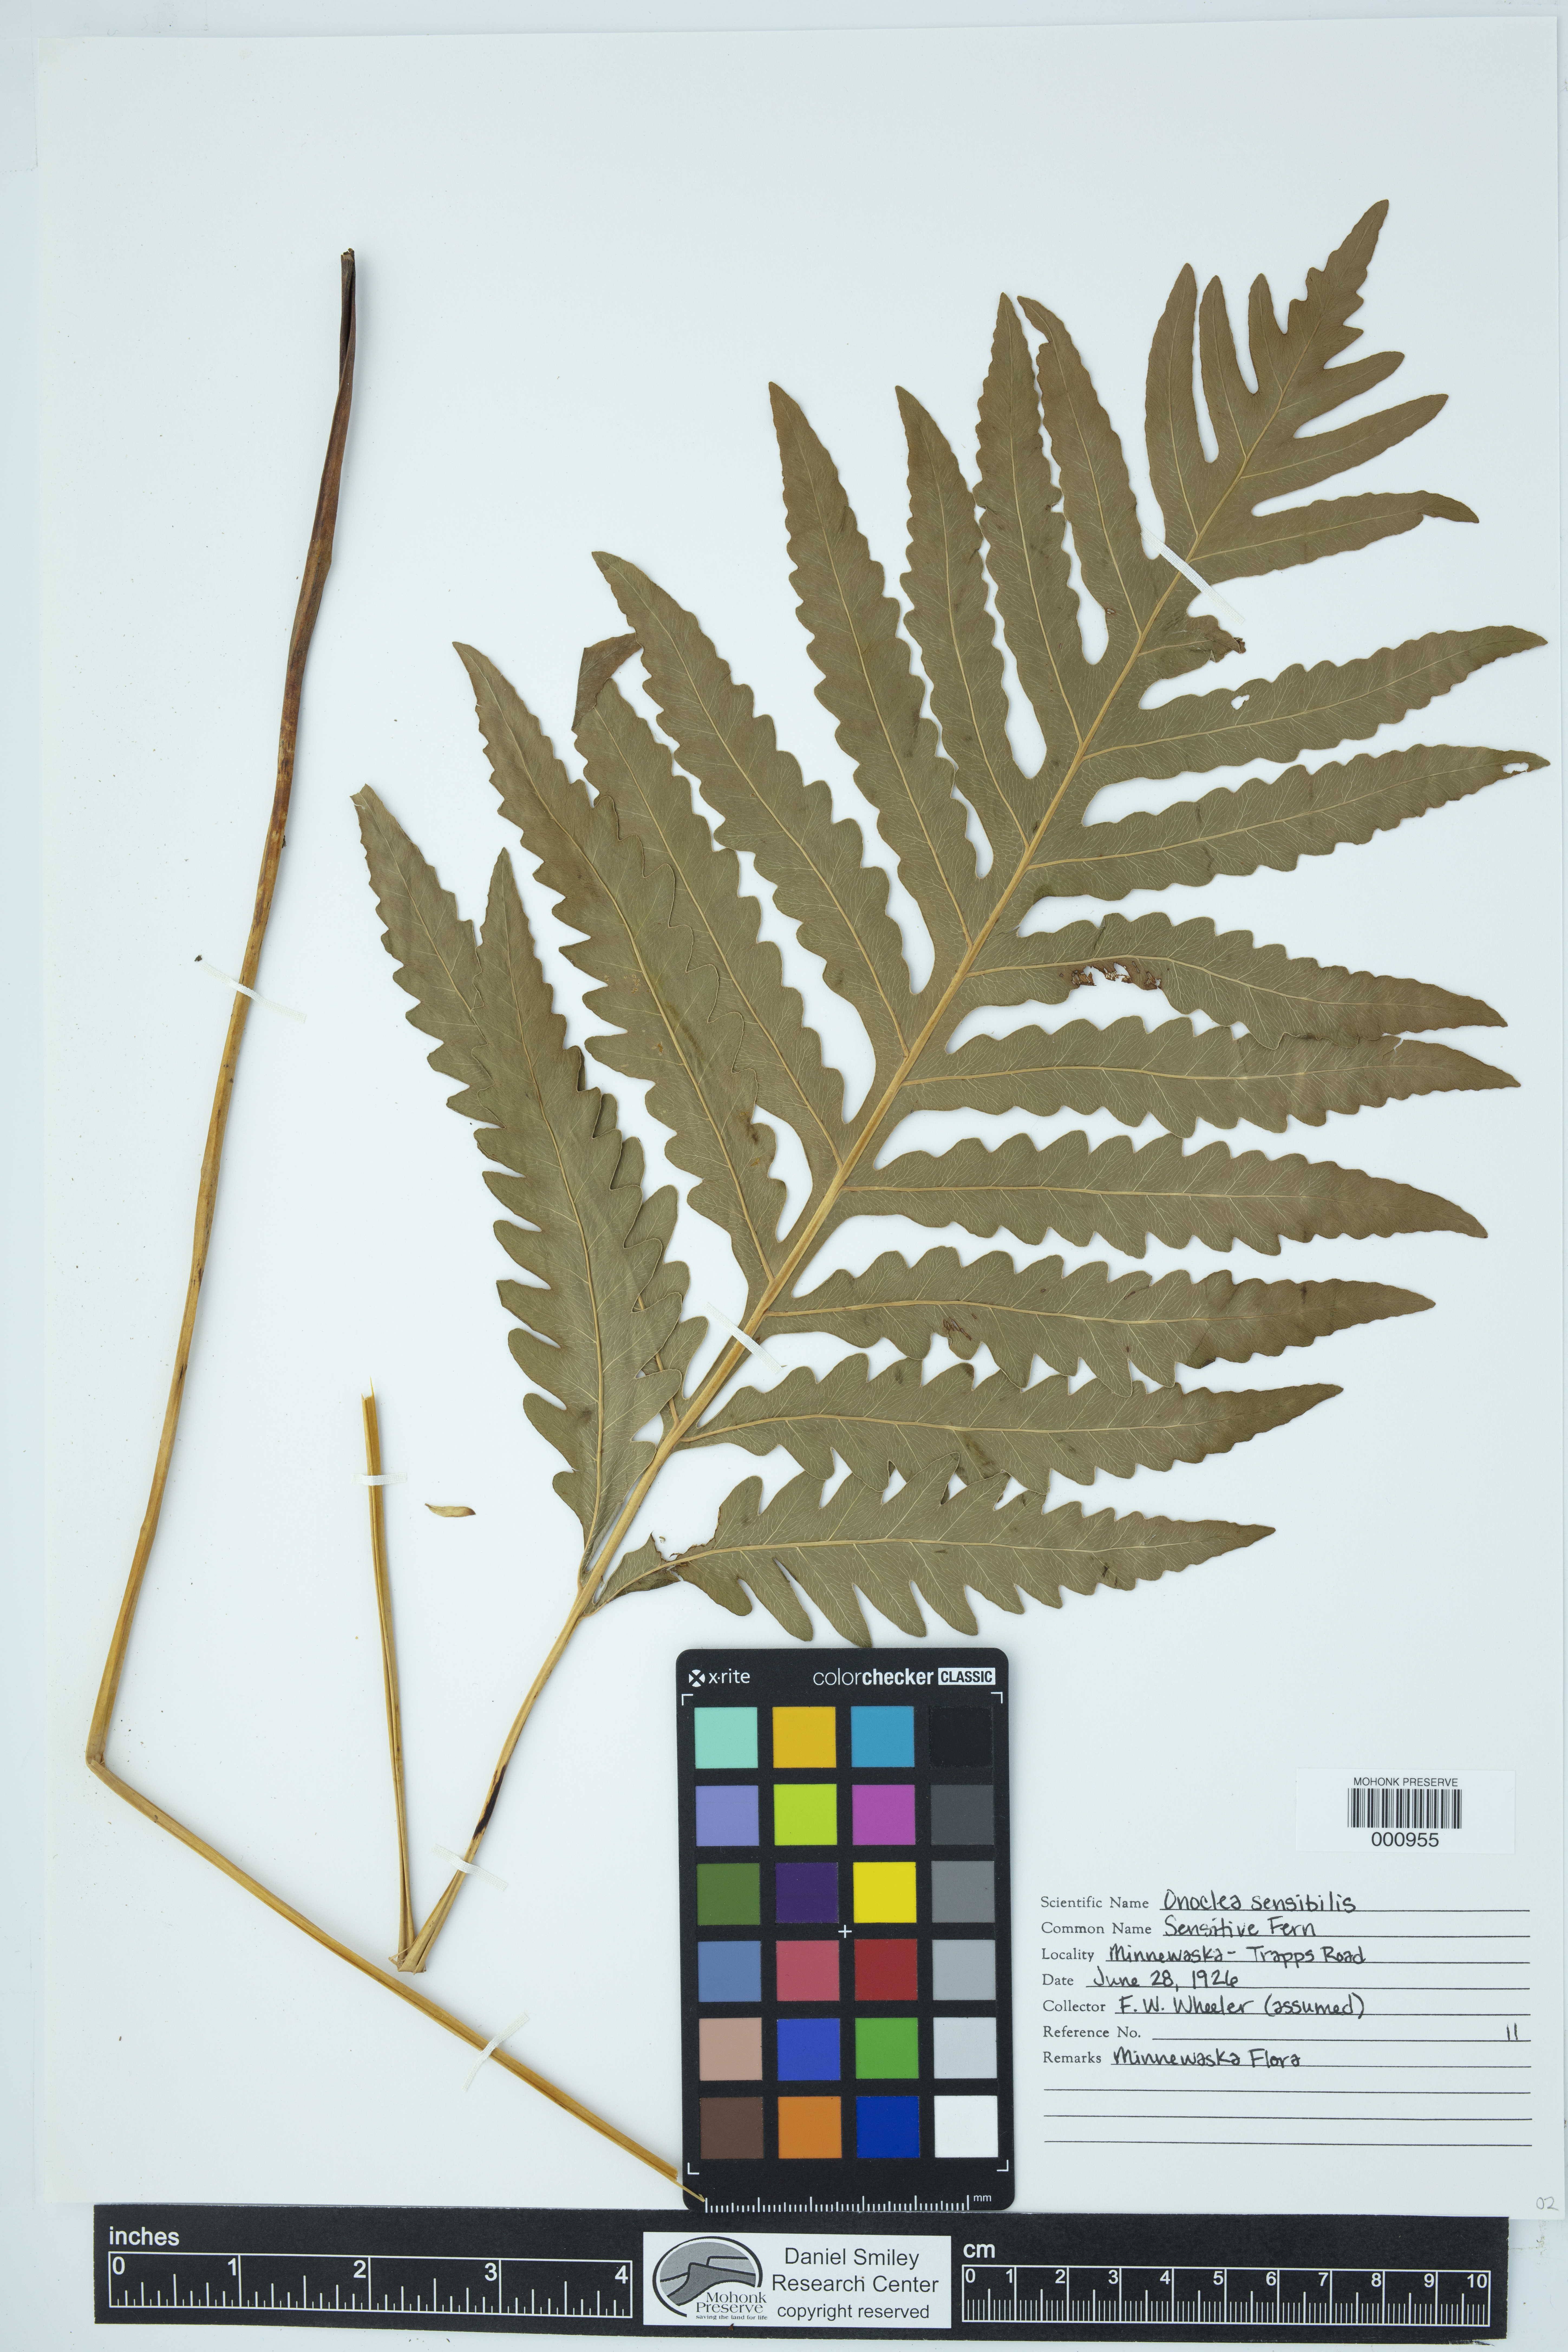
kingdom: Plantae
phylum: Tracheophyta
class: Polypodiopsida
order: Polypodiales
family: Onocleaceae
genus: Onoclea
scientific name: Onoclea sensibilis
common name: Sensitive fern
